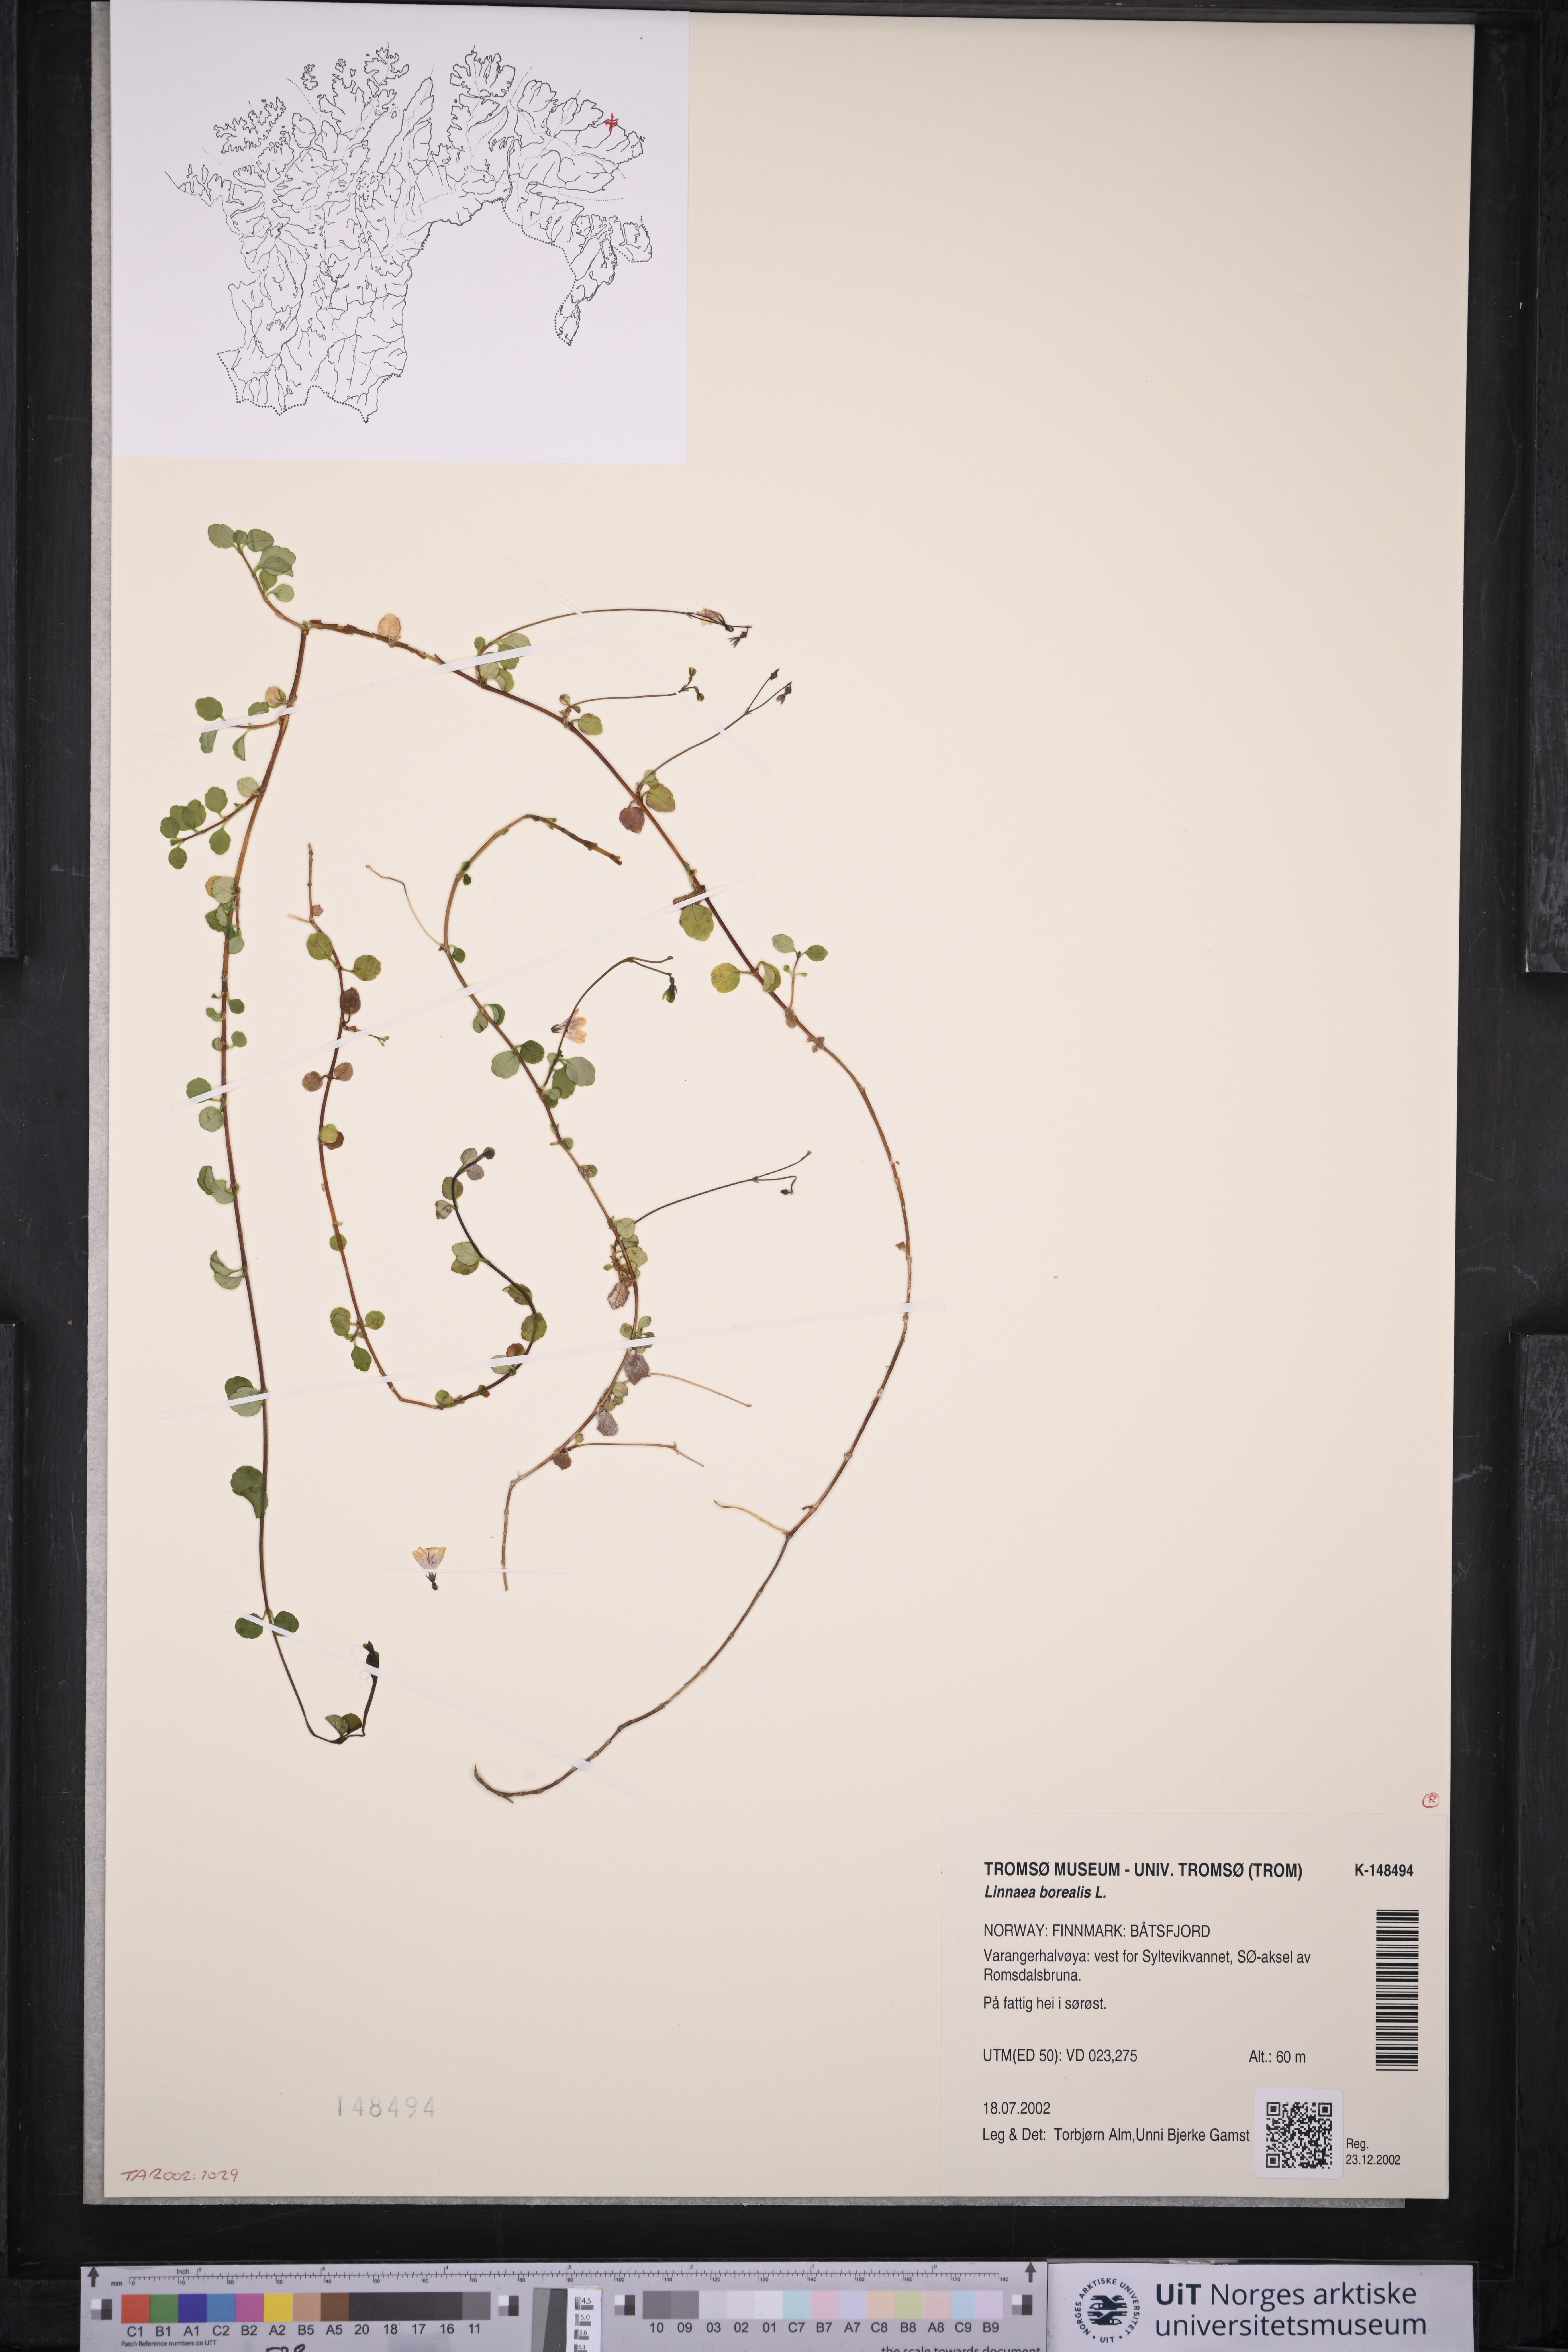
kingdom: Plantae
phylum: Tracheophyta
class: Magnoliopsida
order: Dipsacales
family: Caprifoliaceae
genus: Linnaea
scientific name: Linnaea borealis
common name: Twinflower
